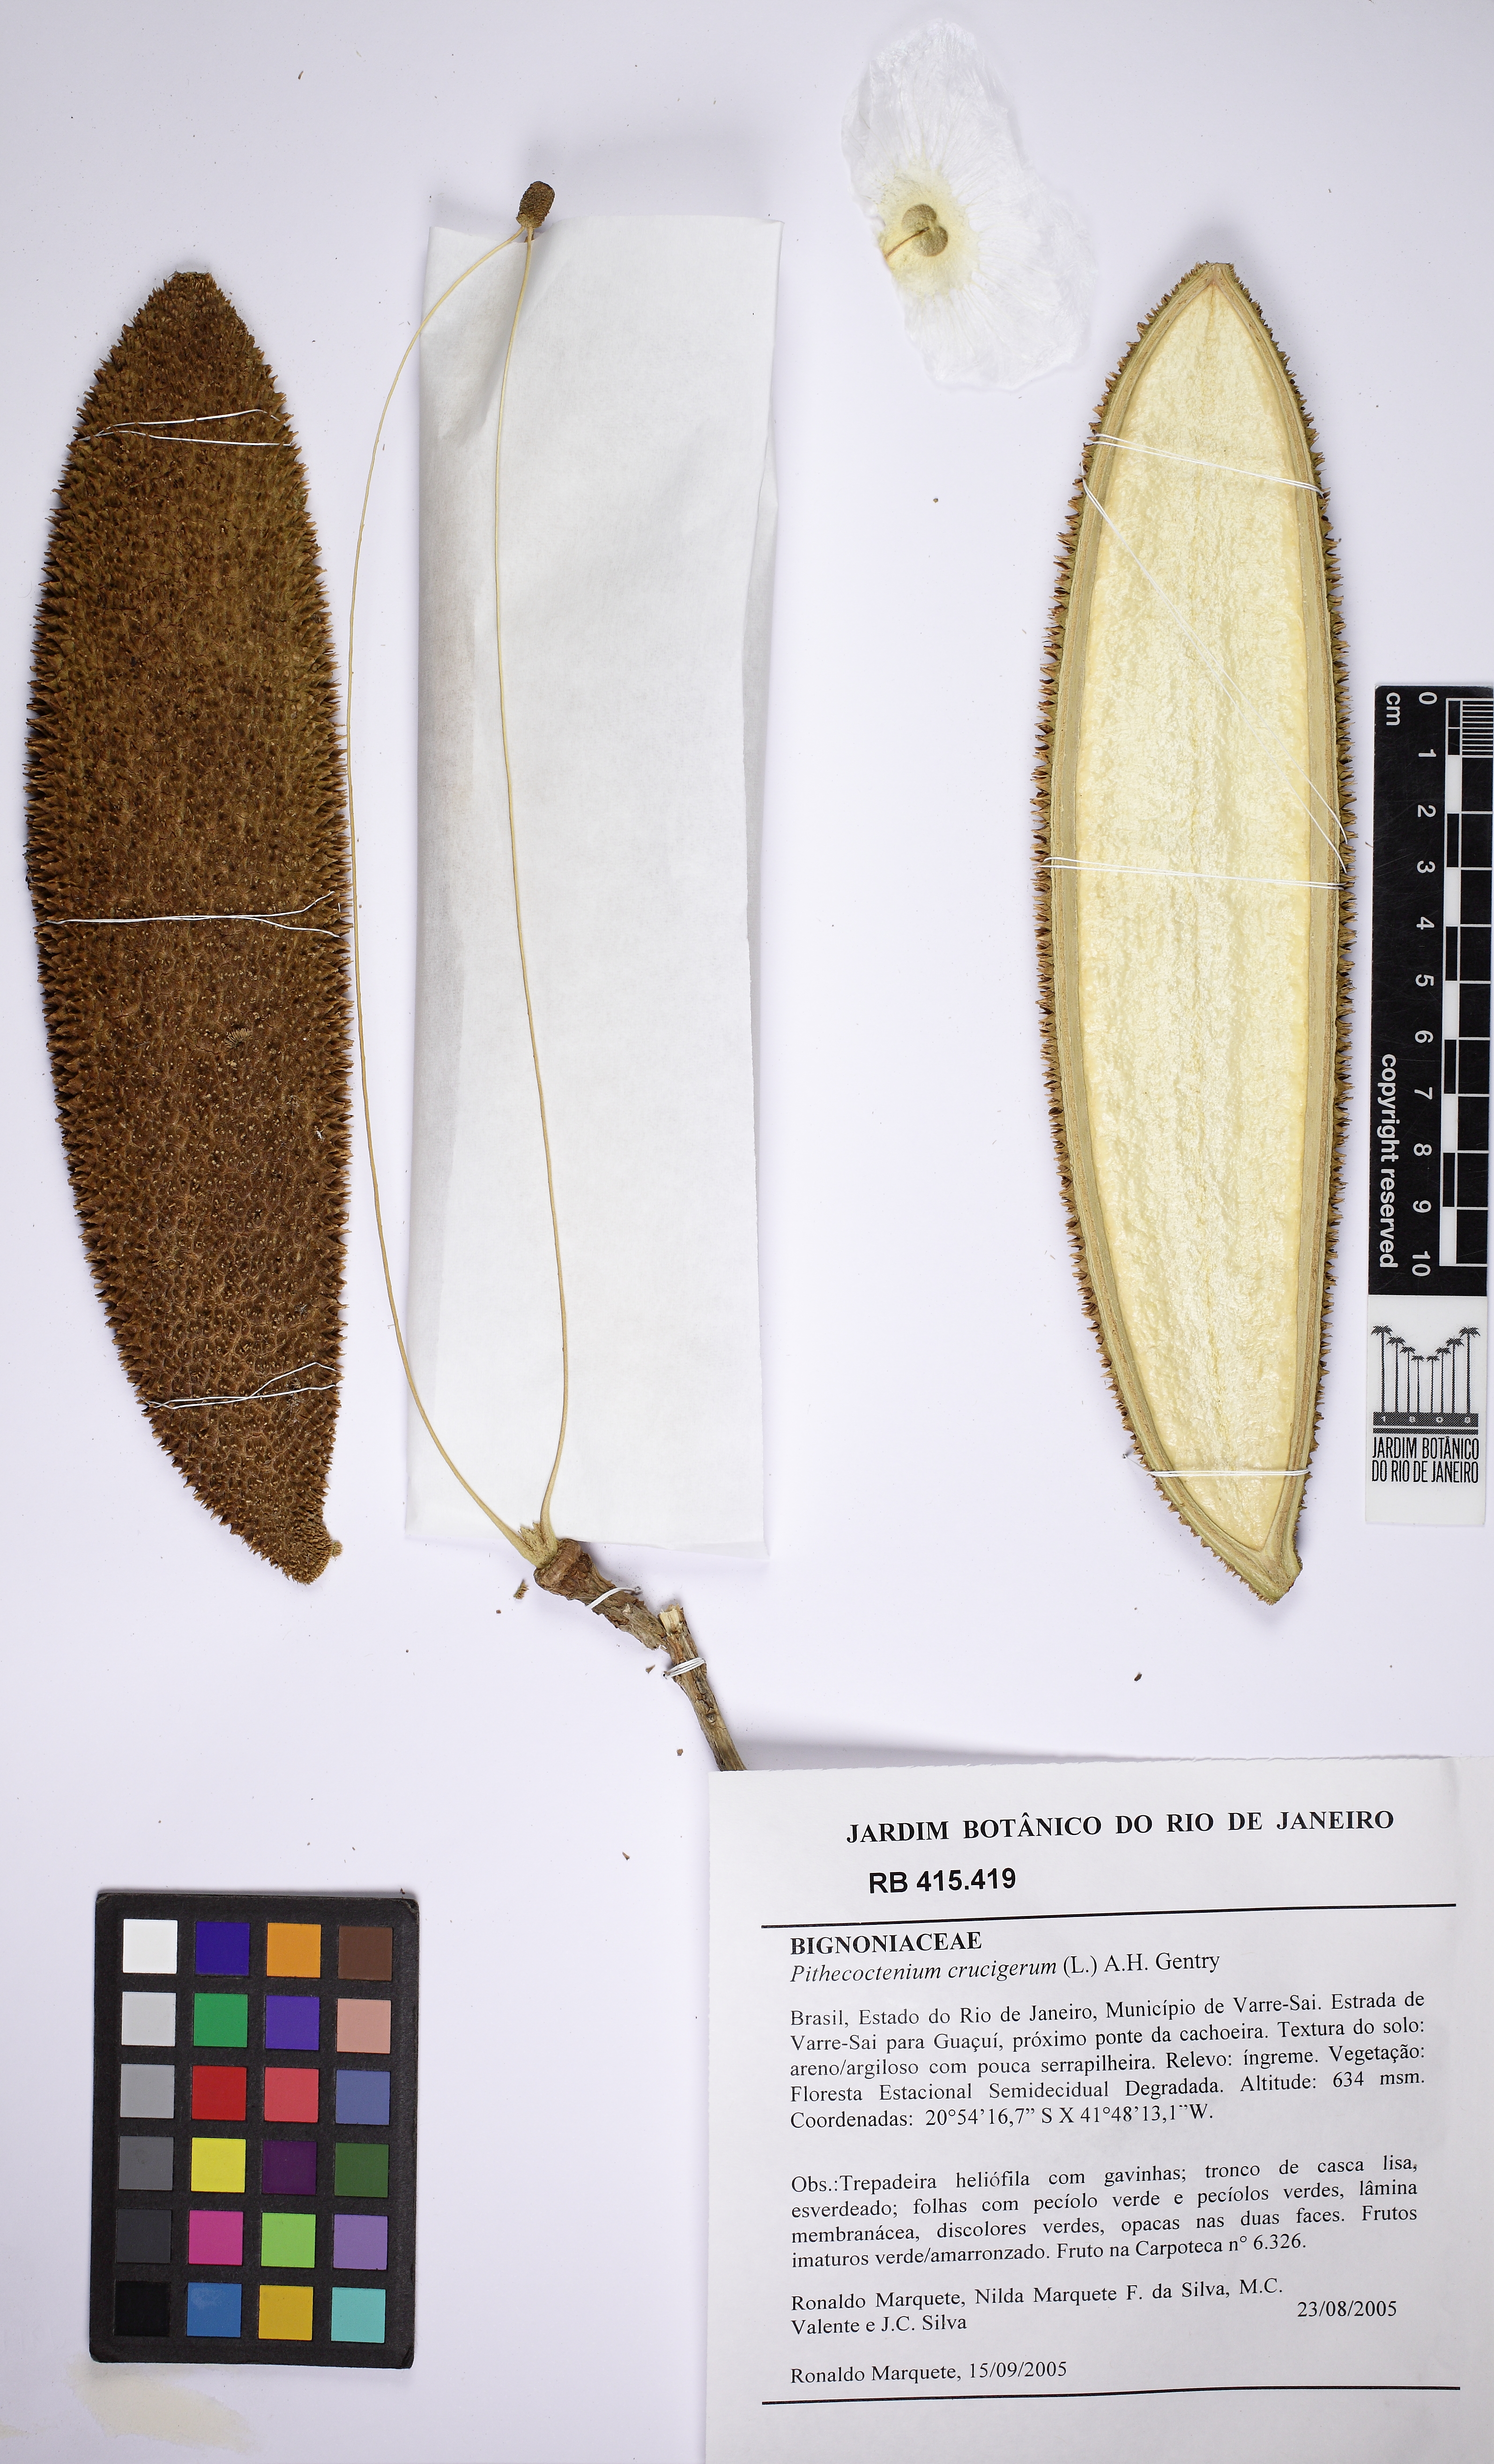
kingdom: Plantae
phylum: Tracheophyta
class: Magnoliopsida
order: Lamiales
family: Bignoniaceae
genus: Amphilophium
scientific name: Amphilophium crucigerum
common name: Monkey comb
